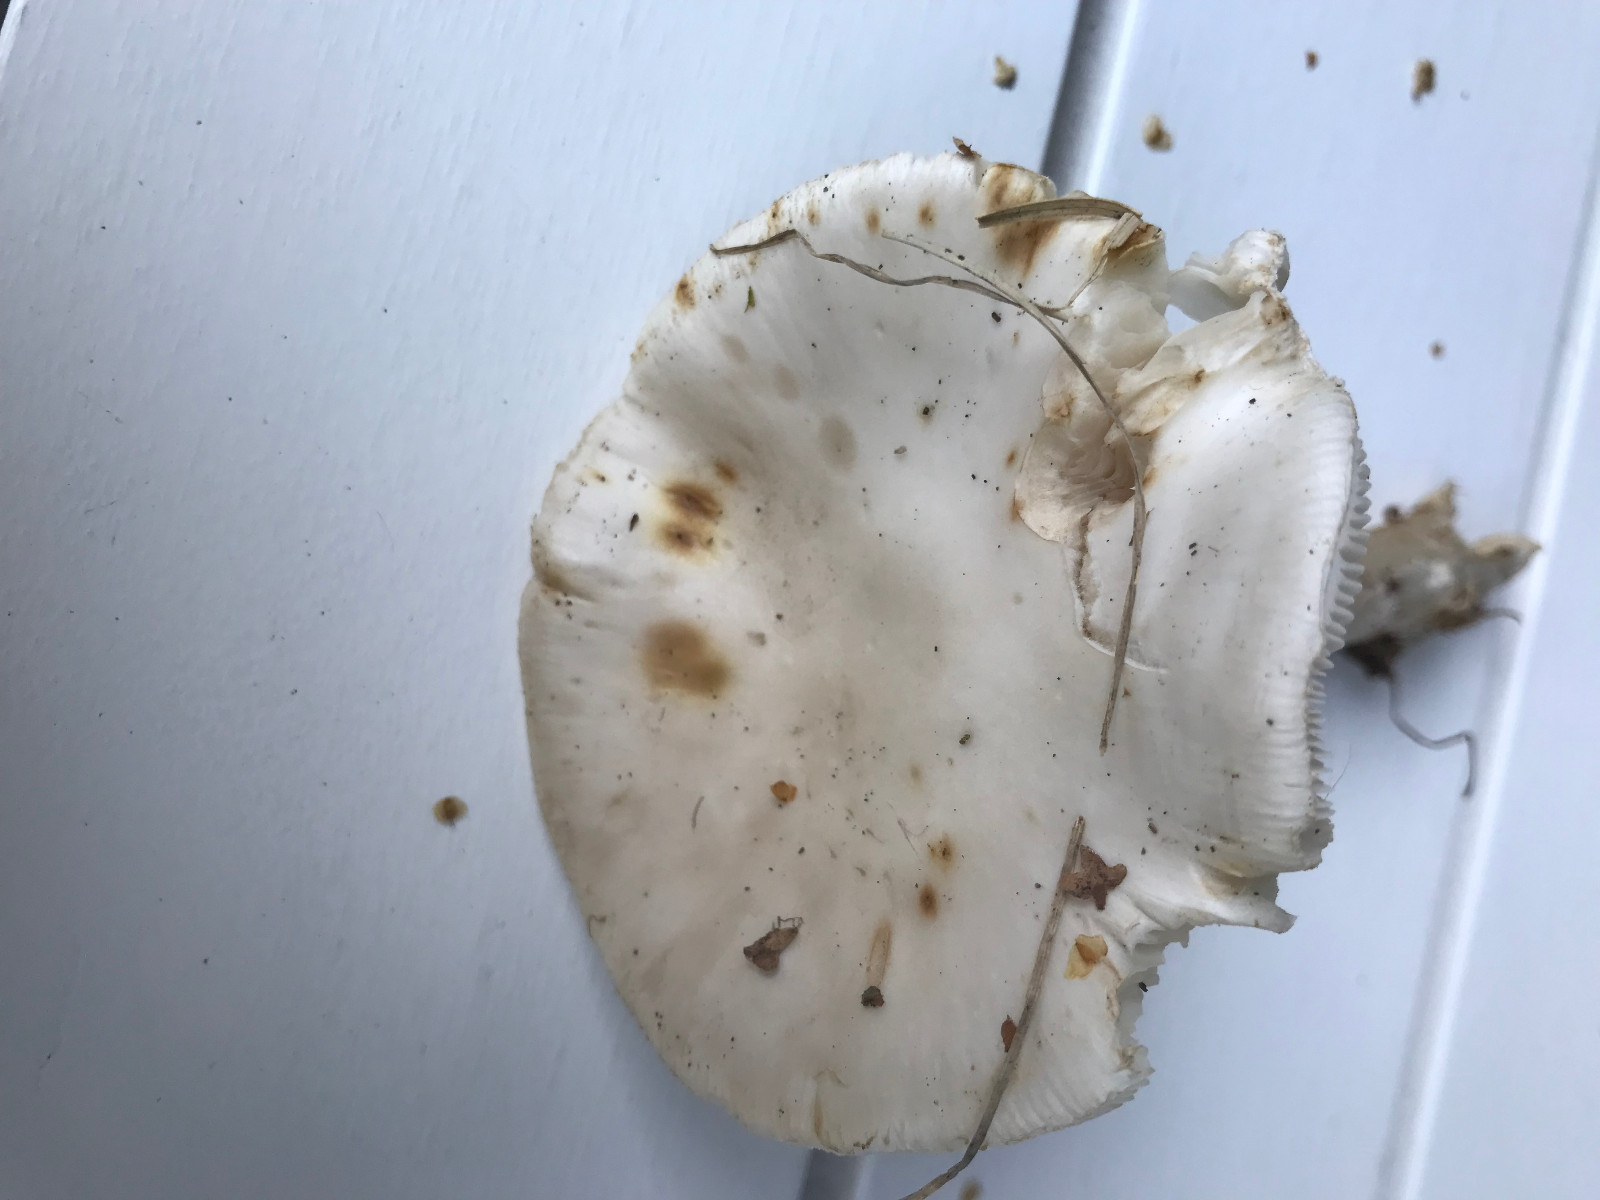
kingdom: Fungi
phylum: Basidiomycota
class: Agaricomycetes
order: Agaricales
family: Amanitaceae
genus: Amanita
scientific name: Amanita citrina
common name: False death-cap
